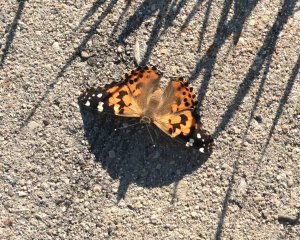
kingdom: Animalia
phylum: Arthropoda
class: Insecta
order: Lepidoptera
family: Nymphalidae
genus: Vanessa
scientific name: Vanessa cardui
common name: Painted Lady
